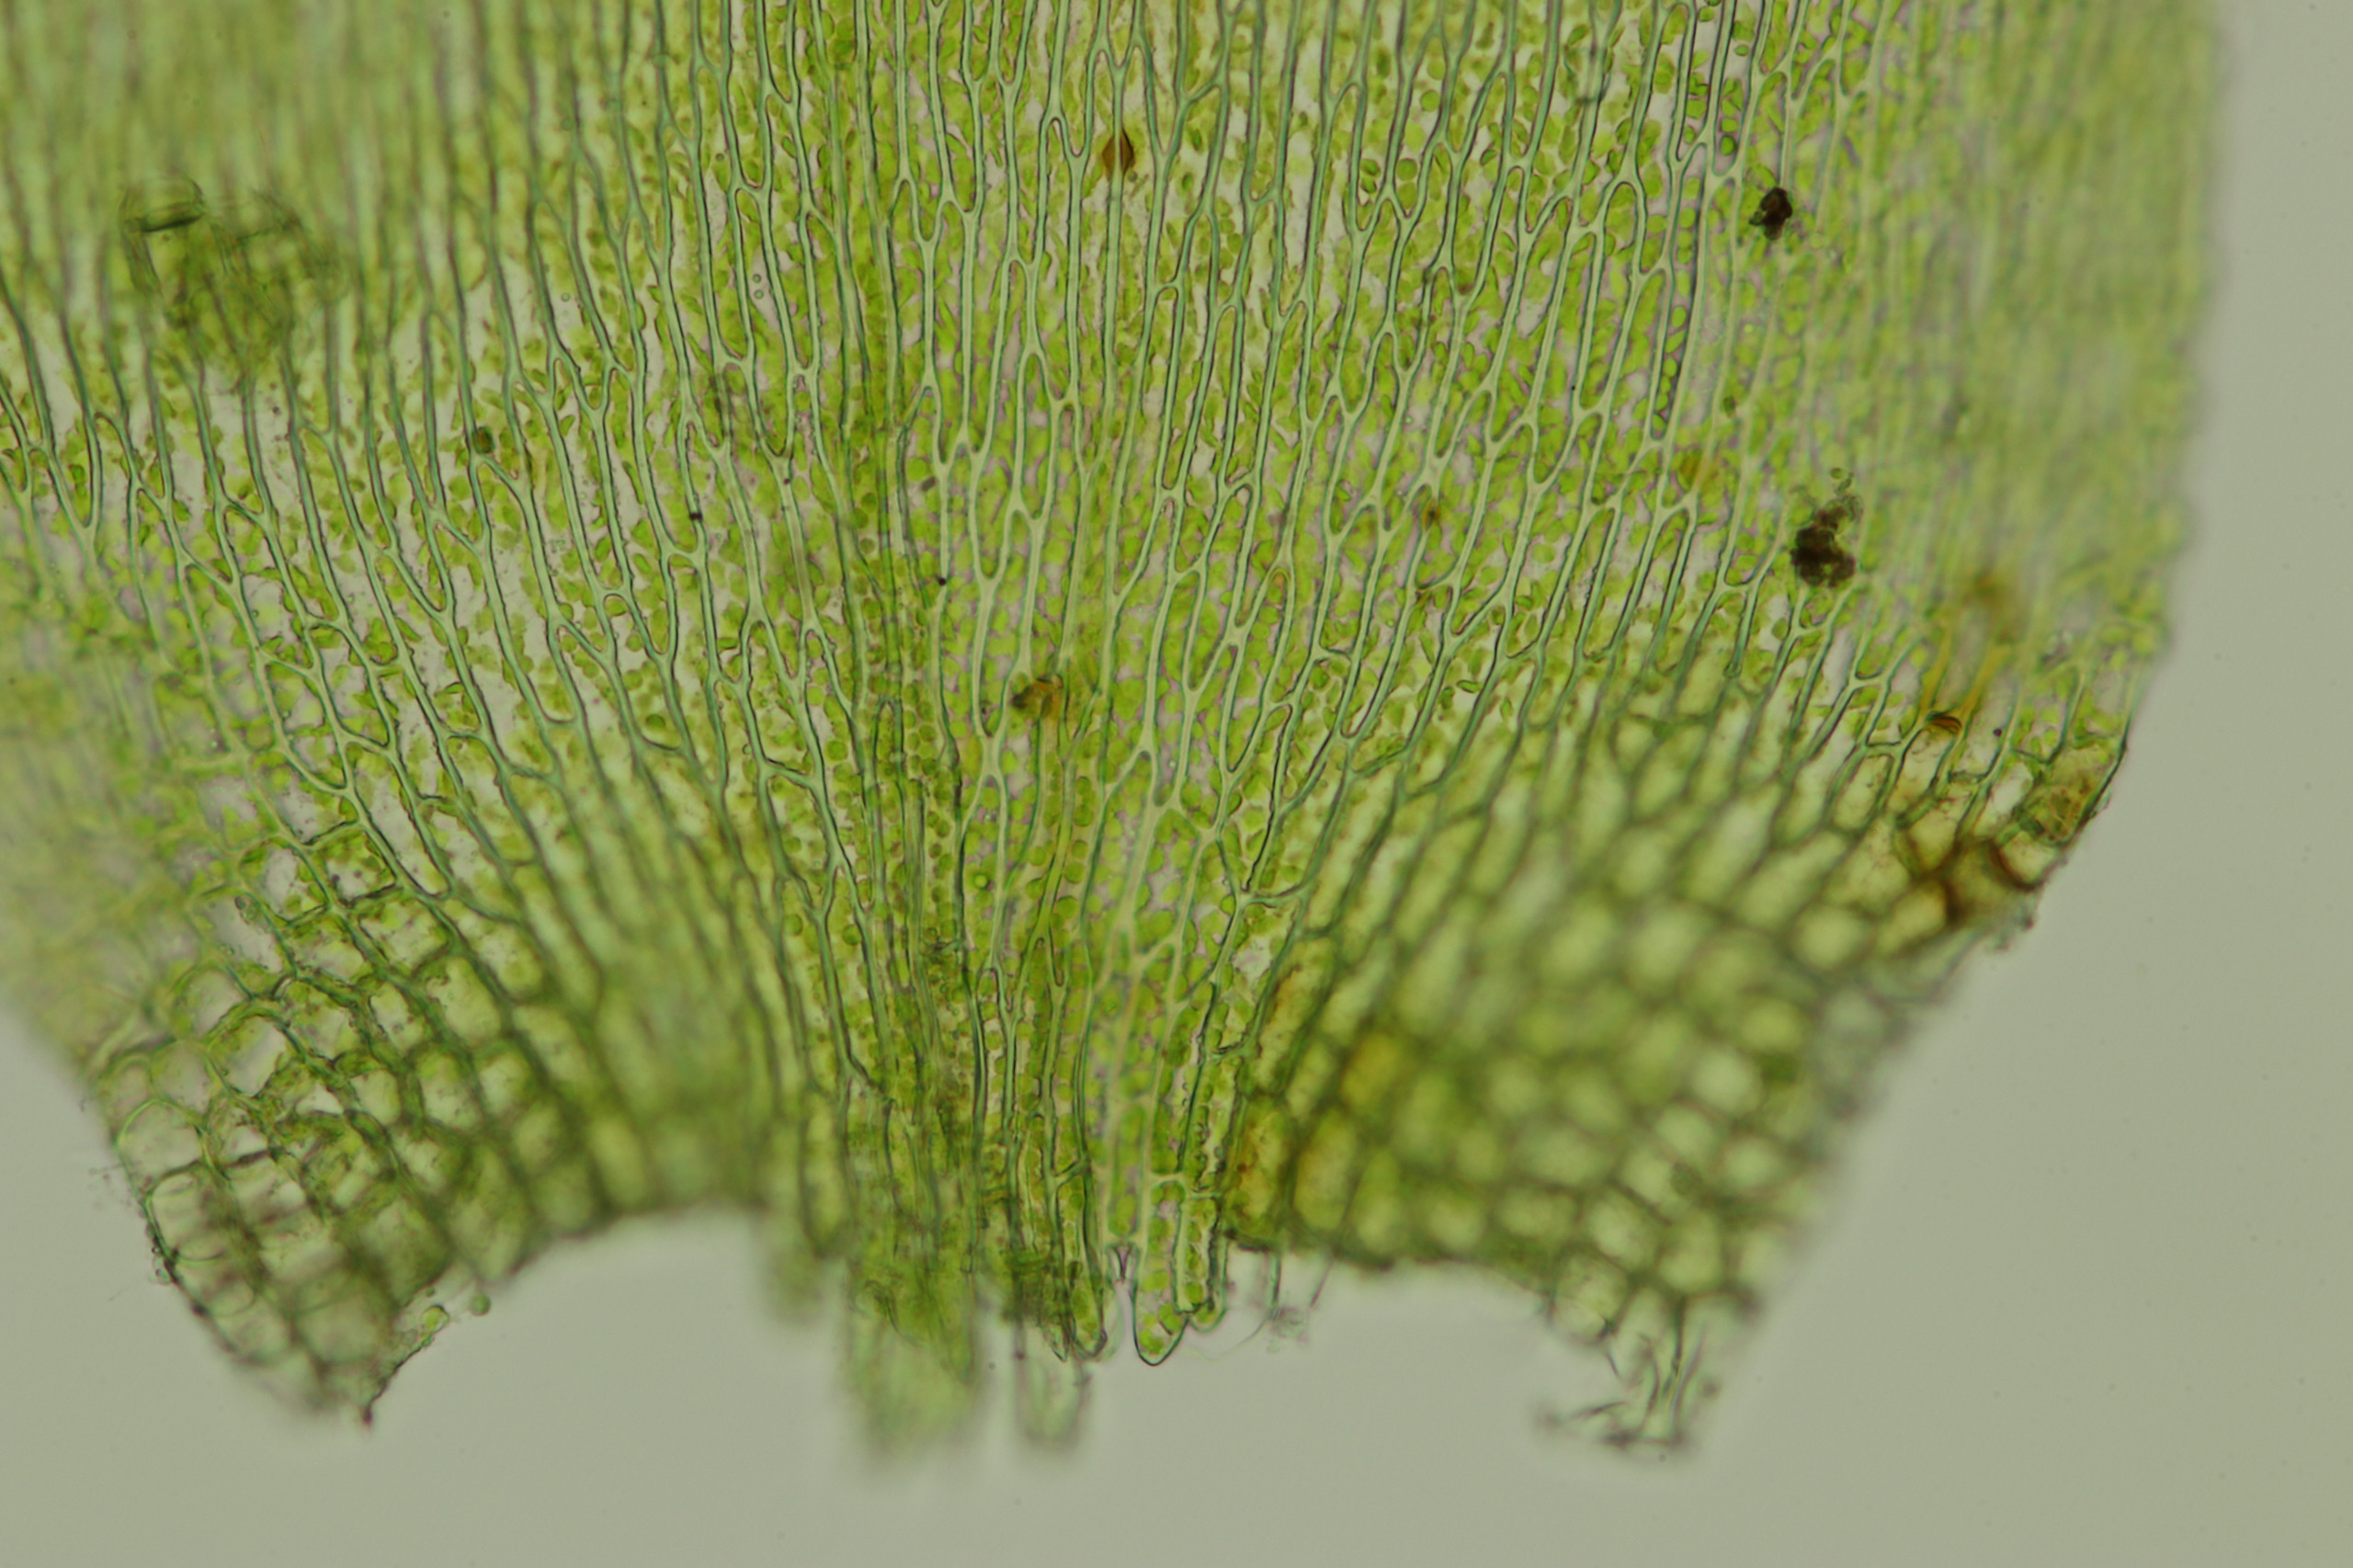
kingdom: Plantae
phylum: Bryophyta
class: Bryopsida
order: Hypnales
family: Pylaisiaceae
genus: Pylaisia
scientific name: Pylaisia polyantha
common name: Mangefrugtet aspemos
